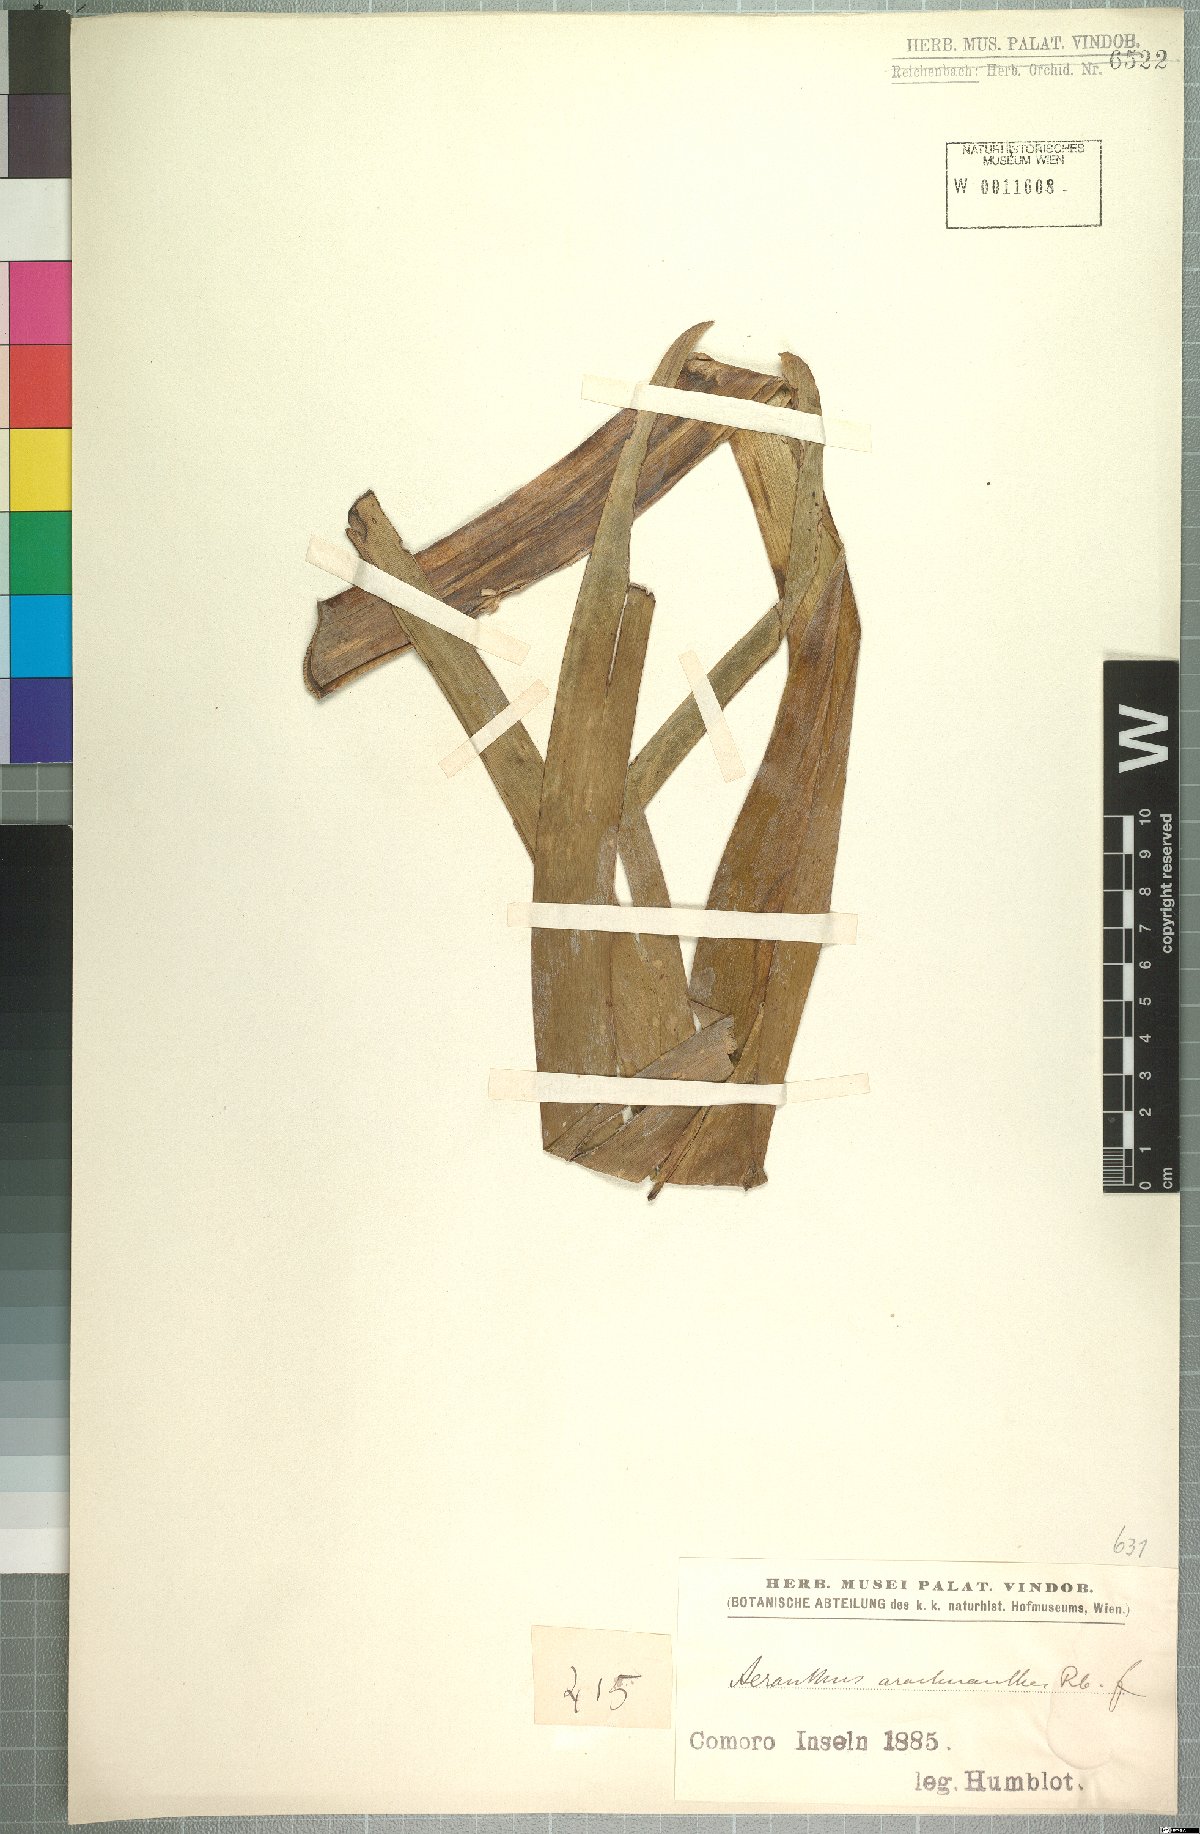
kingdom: Plantae
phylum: Tracheophyta
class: Liliopsida
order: Asparagales
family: Orchidaceae
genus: Jumellea
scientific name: Jumellea arachnantha
